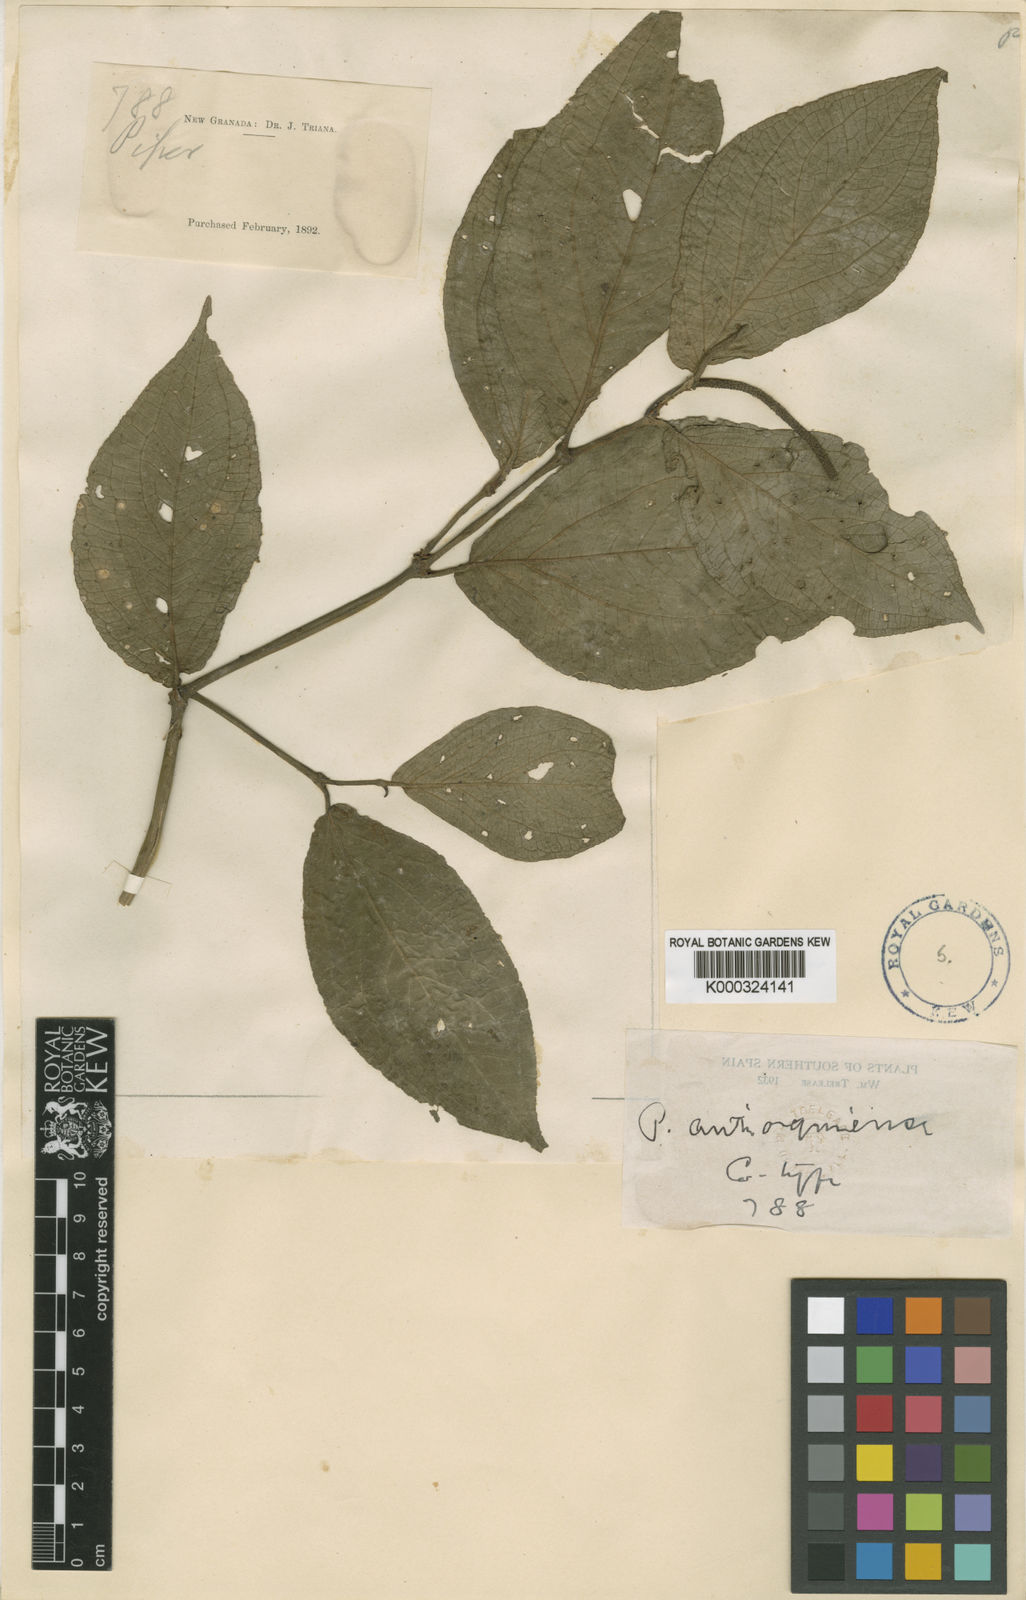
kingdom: Plantae
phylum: Tracheophyta
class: Magnoliopsida
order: Piperales
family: Piperaceae
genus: Piper
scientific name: Piper antioquiense
